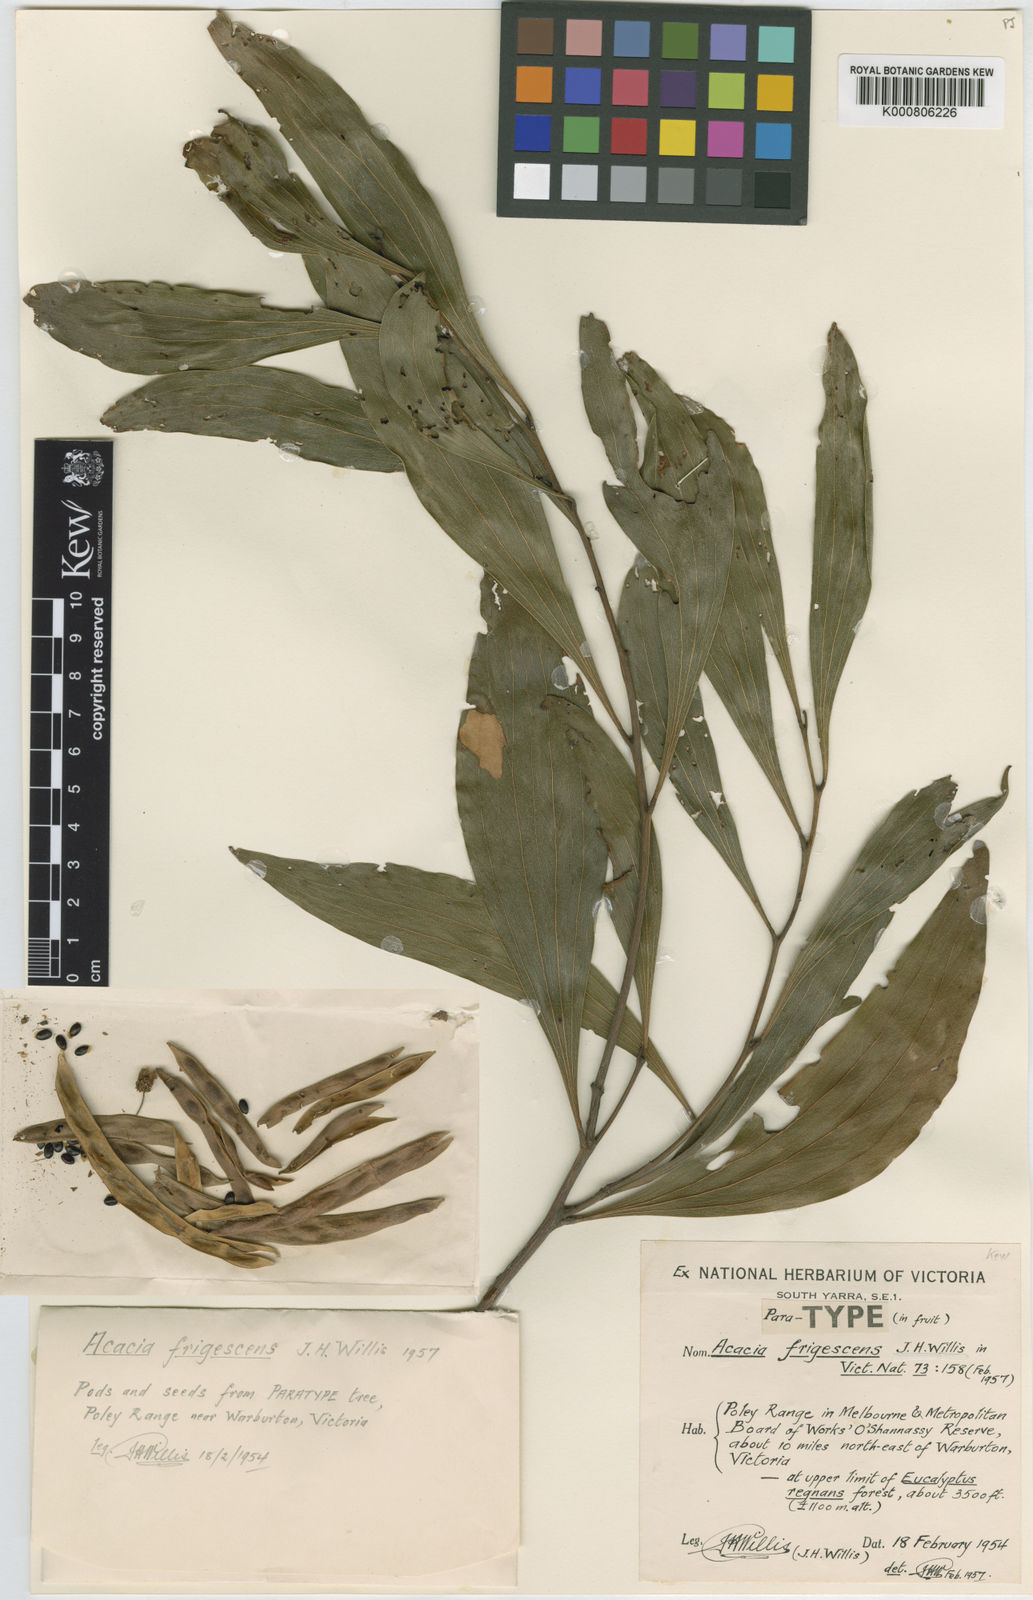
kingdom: Plantae
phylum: Tracheophyta
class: Magnoliopsida
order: Fabales
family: Fabaceae
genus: Acacia
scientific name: Acacia frigescens
